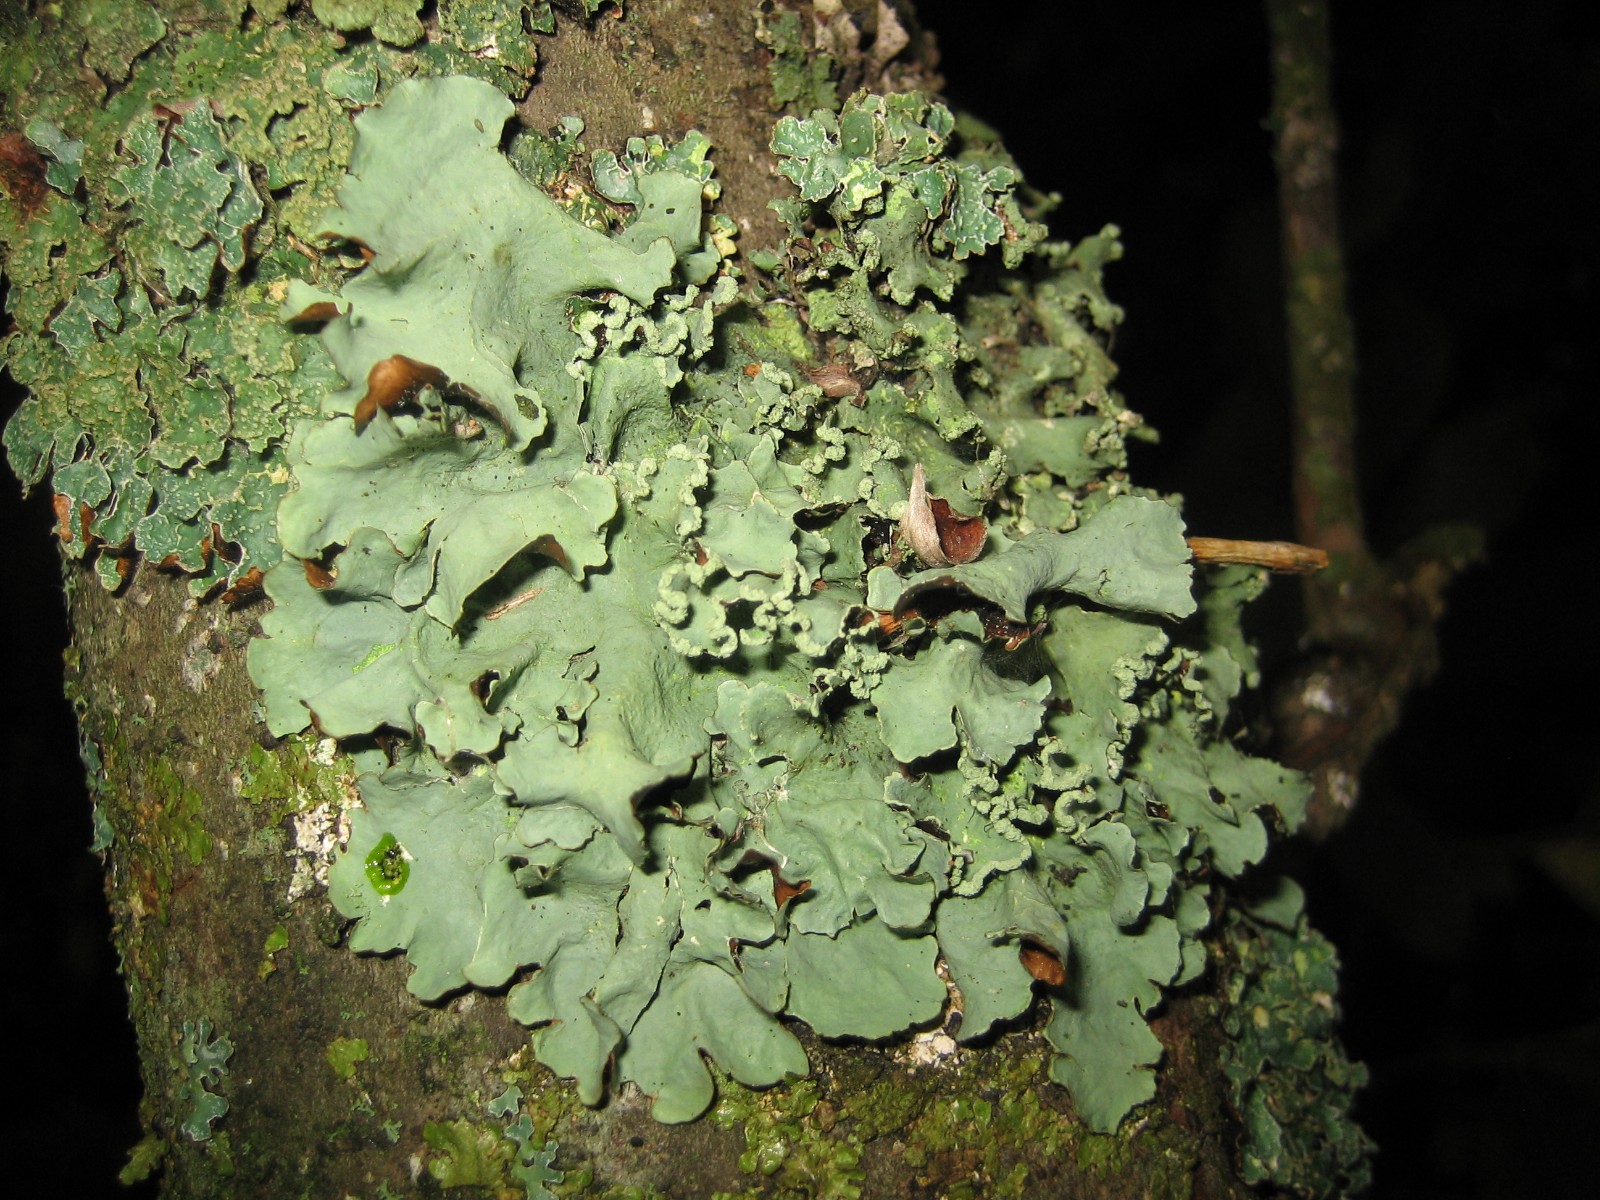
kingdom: Fungi
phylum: Ascomycota
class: Lecanoromycetes
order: Lecanorales
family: Parmeliaceae
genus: Parmotrema
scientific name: Parmotrema perlatum
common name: trådet skållav
